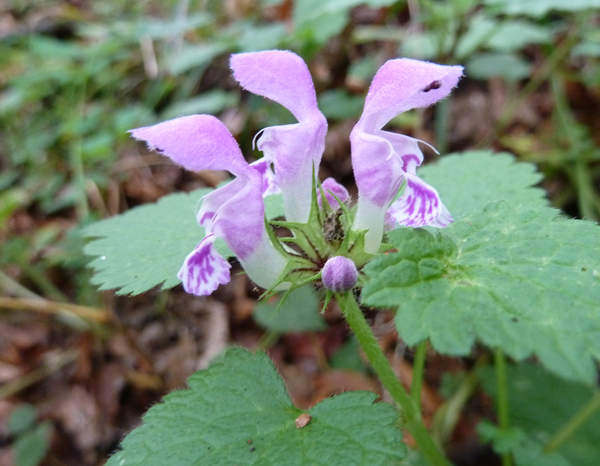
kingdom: Plantae
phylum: Tracheophyta
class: Magnoliopsida
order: Lamiales
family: Lamiaceae
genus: Lamium
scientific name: Lamium maculatum
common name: Spotted dead-nettle
